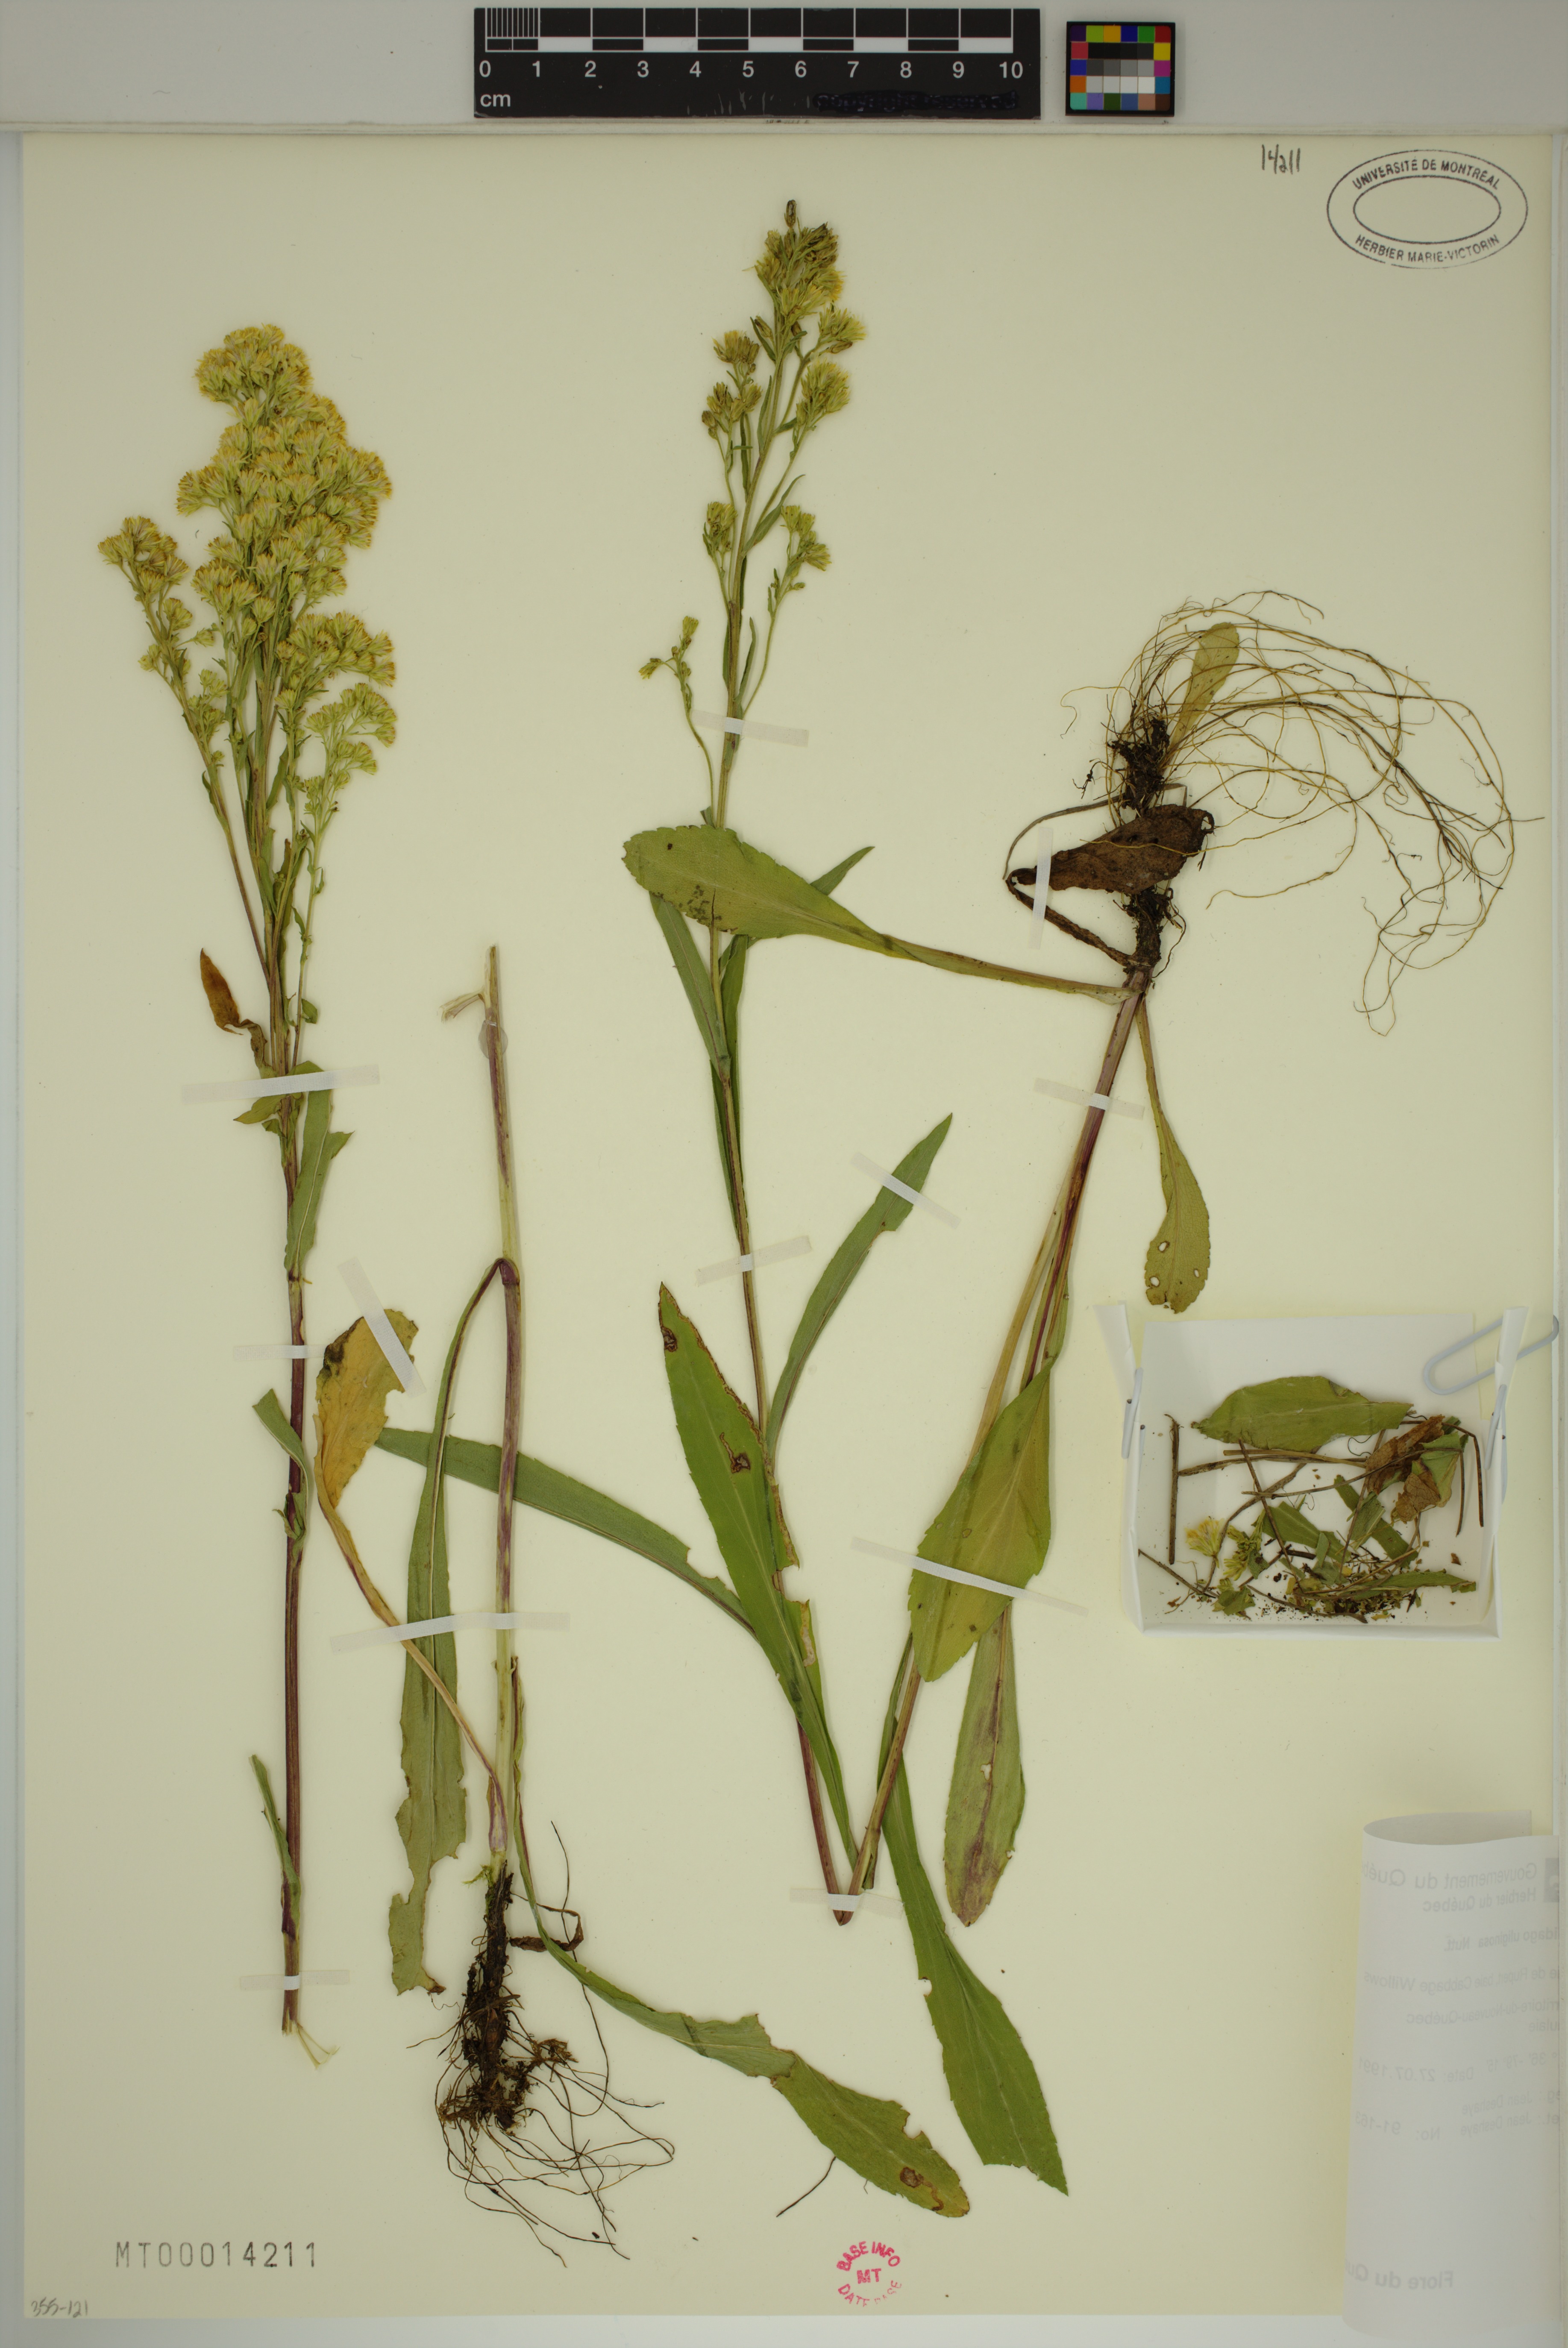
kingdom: Plantae
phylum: Tracheophyta
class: Magnoliopsida
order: Asterales
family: Asteraceae
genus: Solidago
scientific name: Solidago uliginosa
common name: Bog goldenrod
